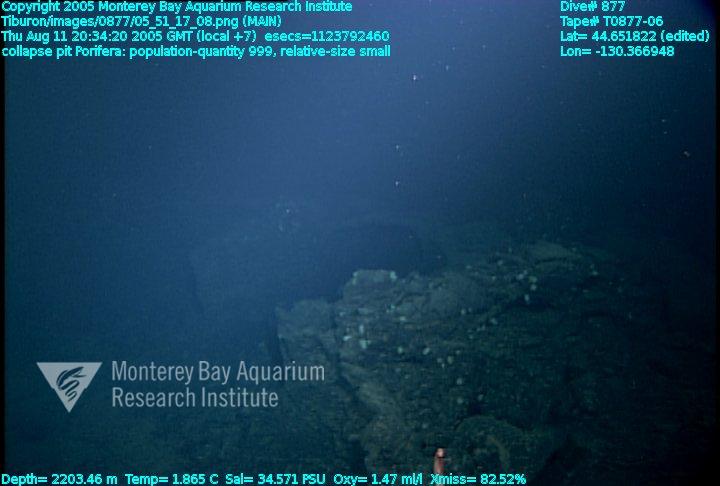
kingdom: Animalia
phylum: Porifera
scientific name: Porifera
